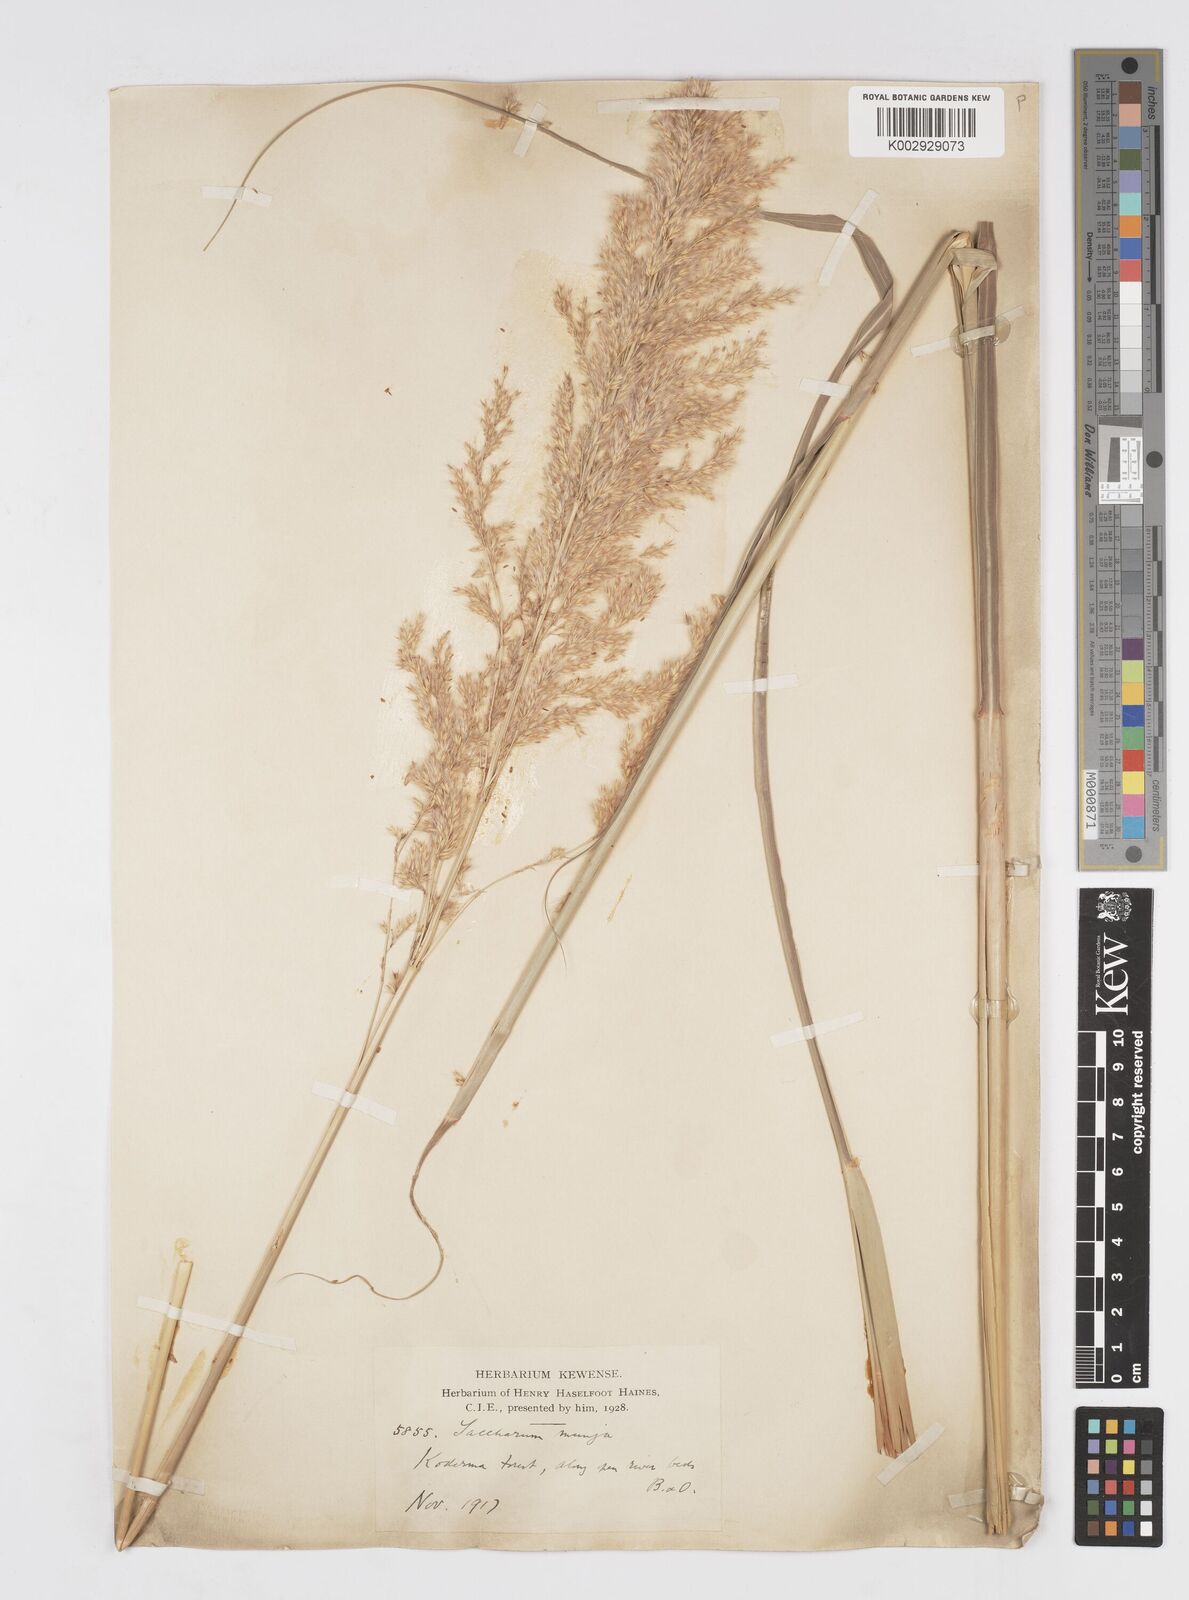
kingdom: Plantae
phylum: Tracheophyta
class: Liliopsida
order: Poales
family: Poaceae
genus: Tripidium
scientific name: Tripidium bengalense
